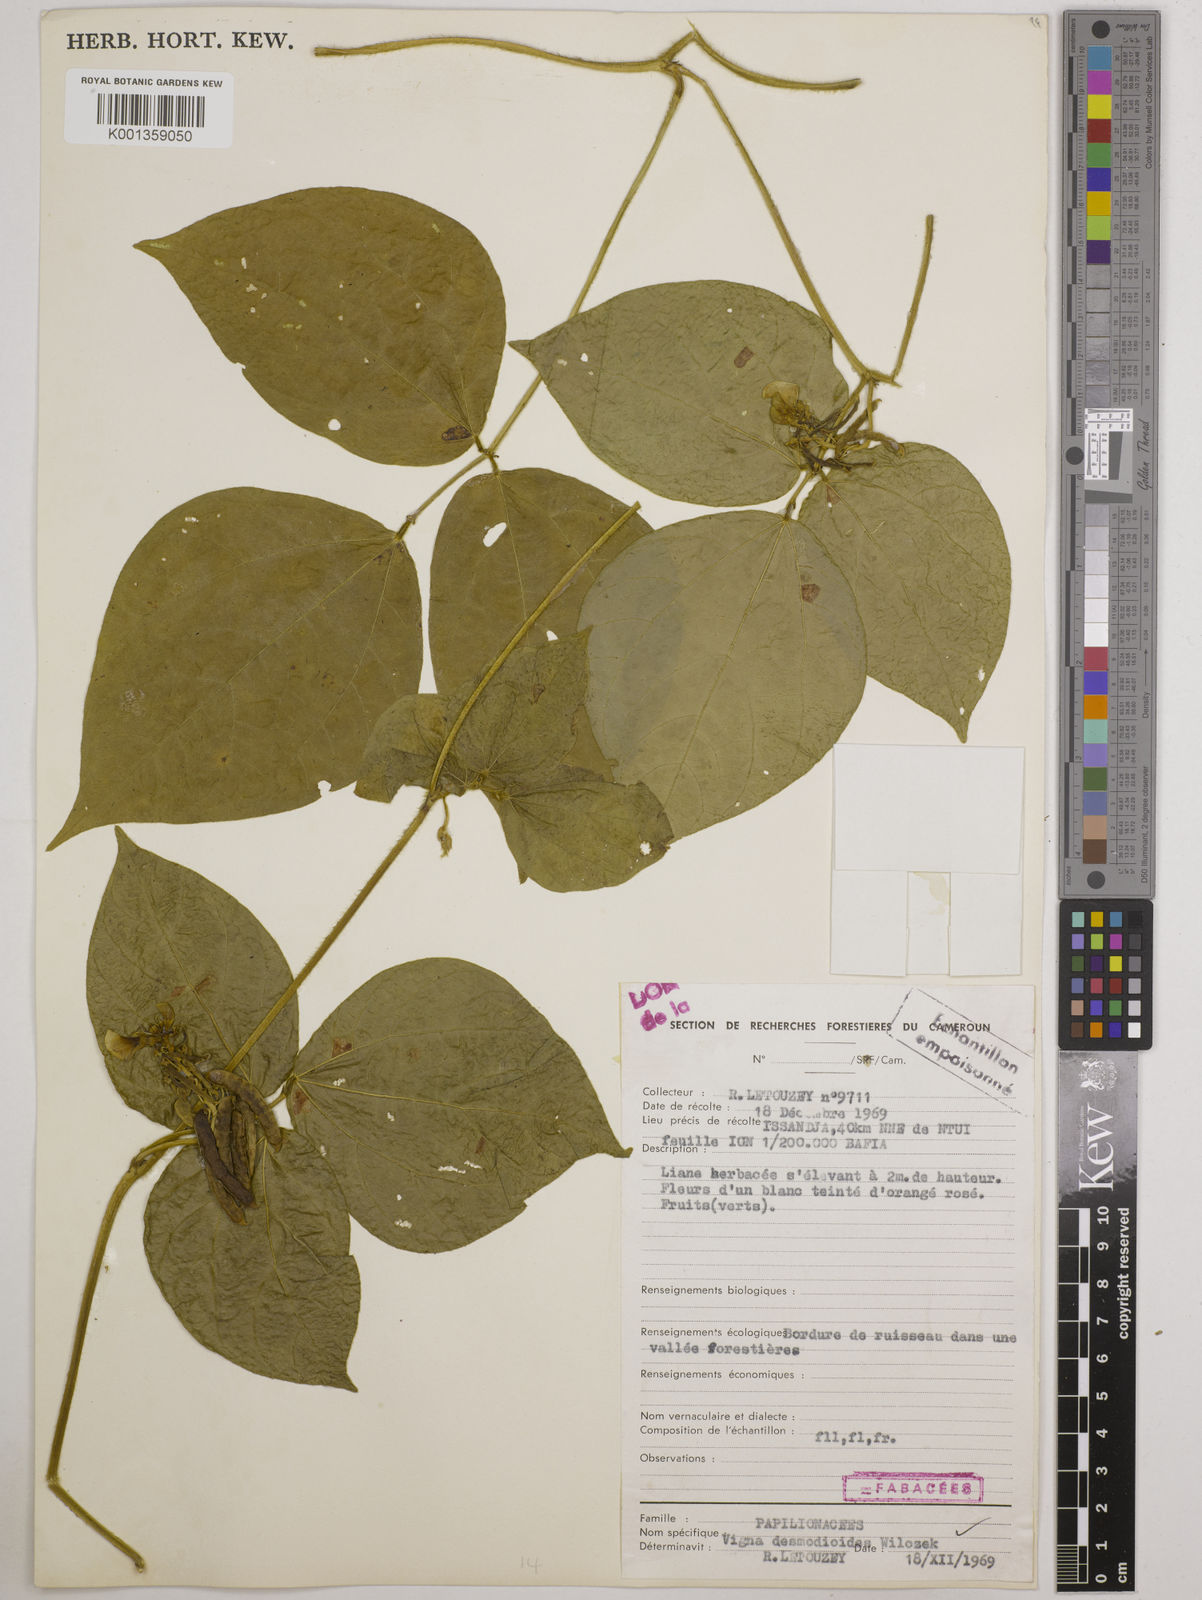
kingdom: Plantae
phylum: Tracheophyta
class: Magnoliopsida
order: Fabales
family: Fabaceae
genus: Vigna
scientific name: Vigna gracilis
